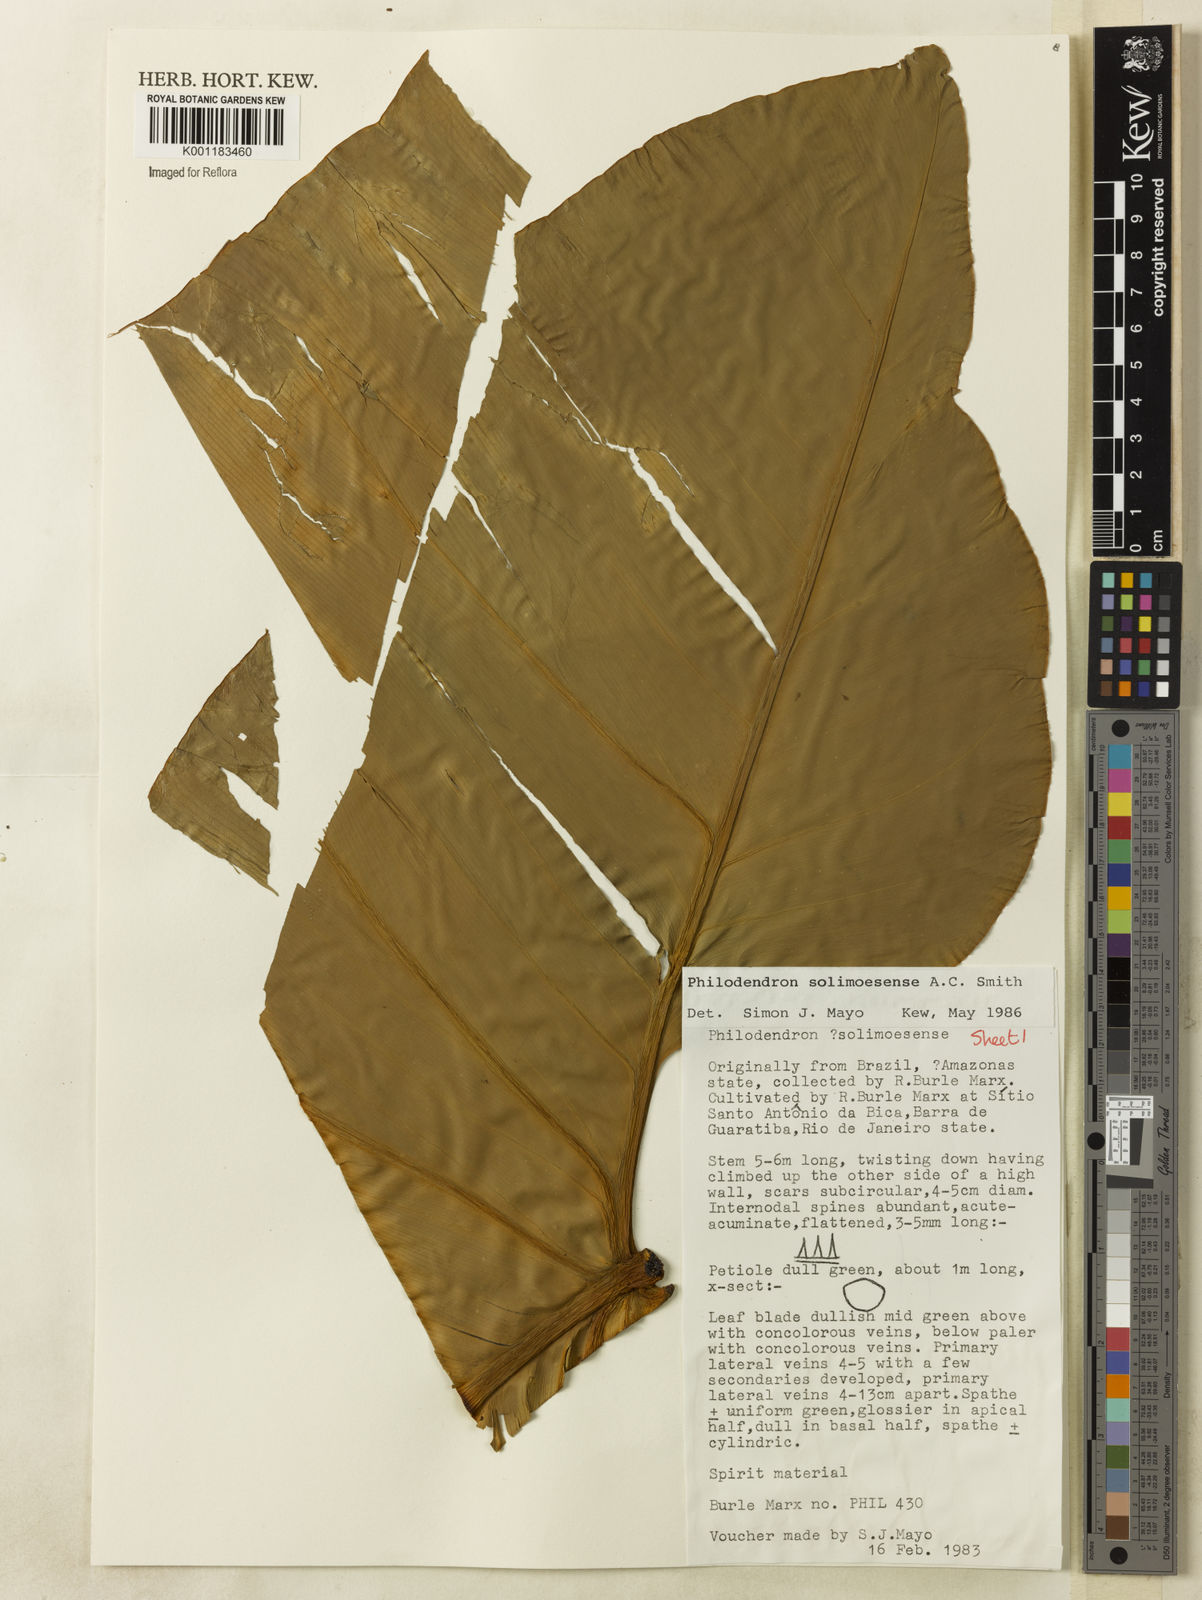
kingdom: Plantae
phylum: Tracheophyta
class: Liliopsida
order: Alismatales
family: Araceae
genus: Thaumatophyllum
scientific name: Thaumatophyllum solimoesense
